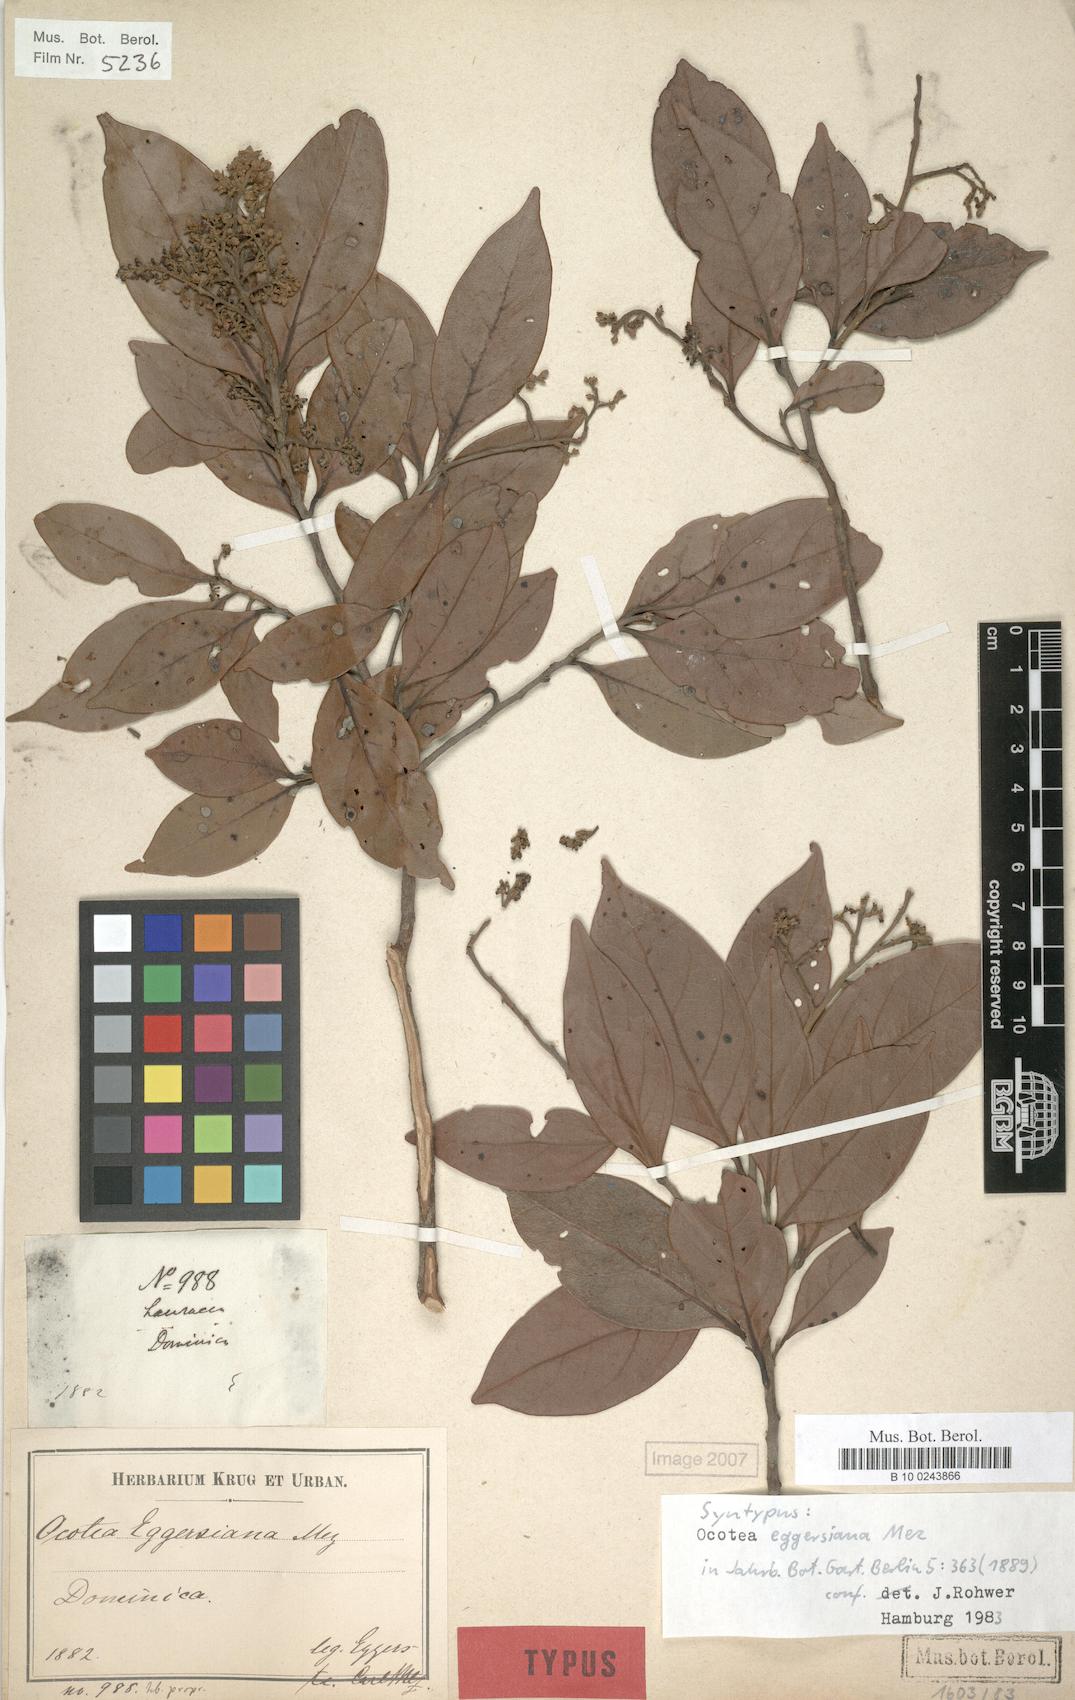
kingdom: Plantae
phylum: Tracheophyta
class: Magnoliopsida
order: Laurales
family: Lauraceae
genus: Ocotea
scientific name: Ocotea eggersiana
